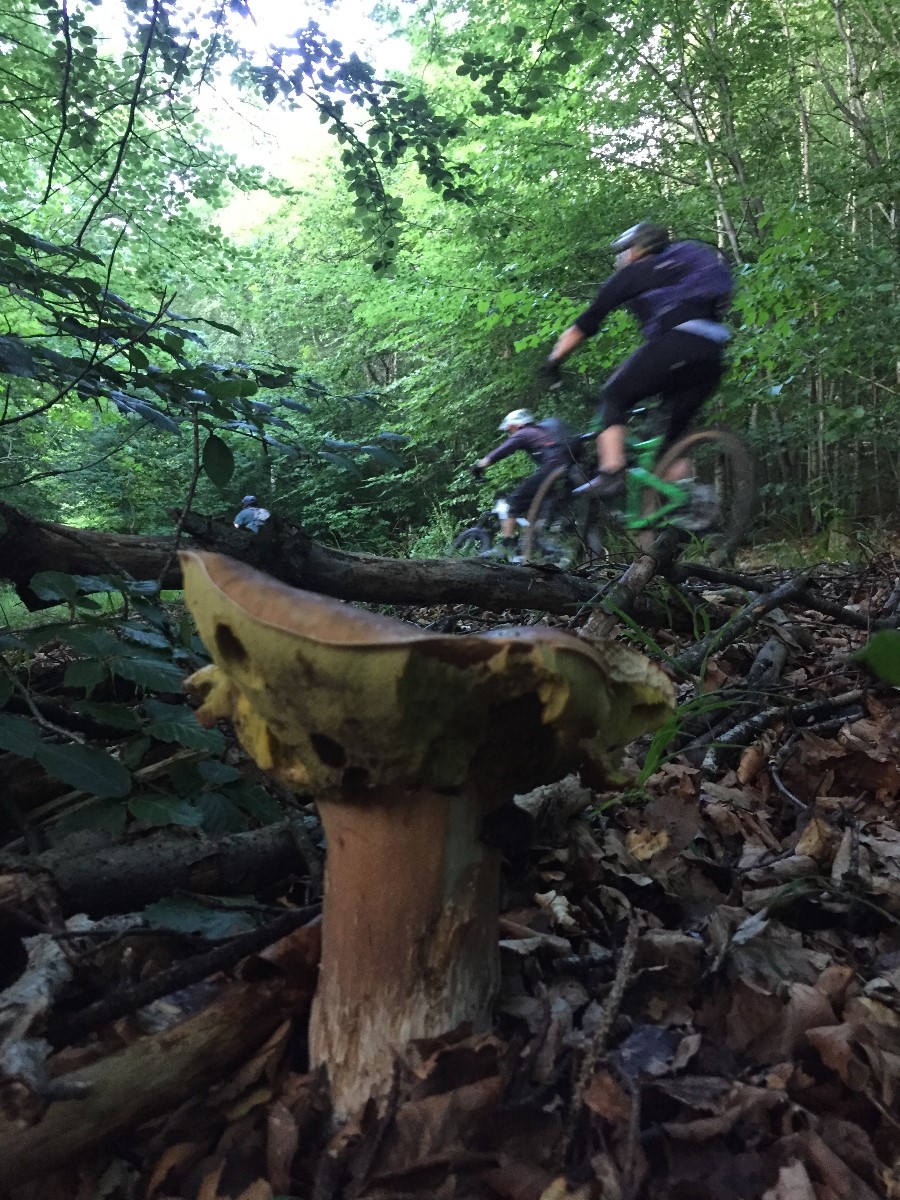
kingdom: Fungi
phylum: Basidiomycota
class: Agaricomycetes
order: Boletales
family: Boletaceae
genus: Boletus
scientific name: Boletus reticulatus
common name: sommer-rørhat
